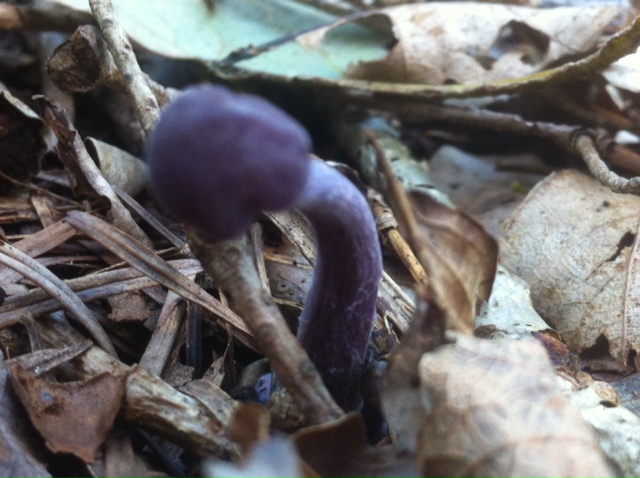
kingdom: Fungi
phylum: Basidiomycota
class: Agaricomycetes
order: Agaricales
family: Hydnangiaceae
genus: Laccaria
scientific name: Laccaria amethystina
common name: violet ametysthat
